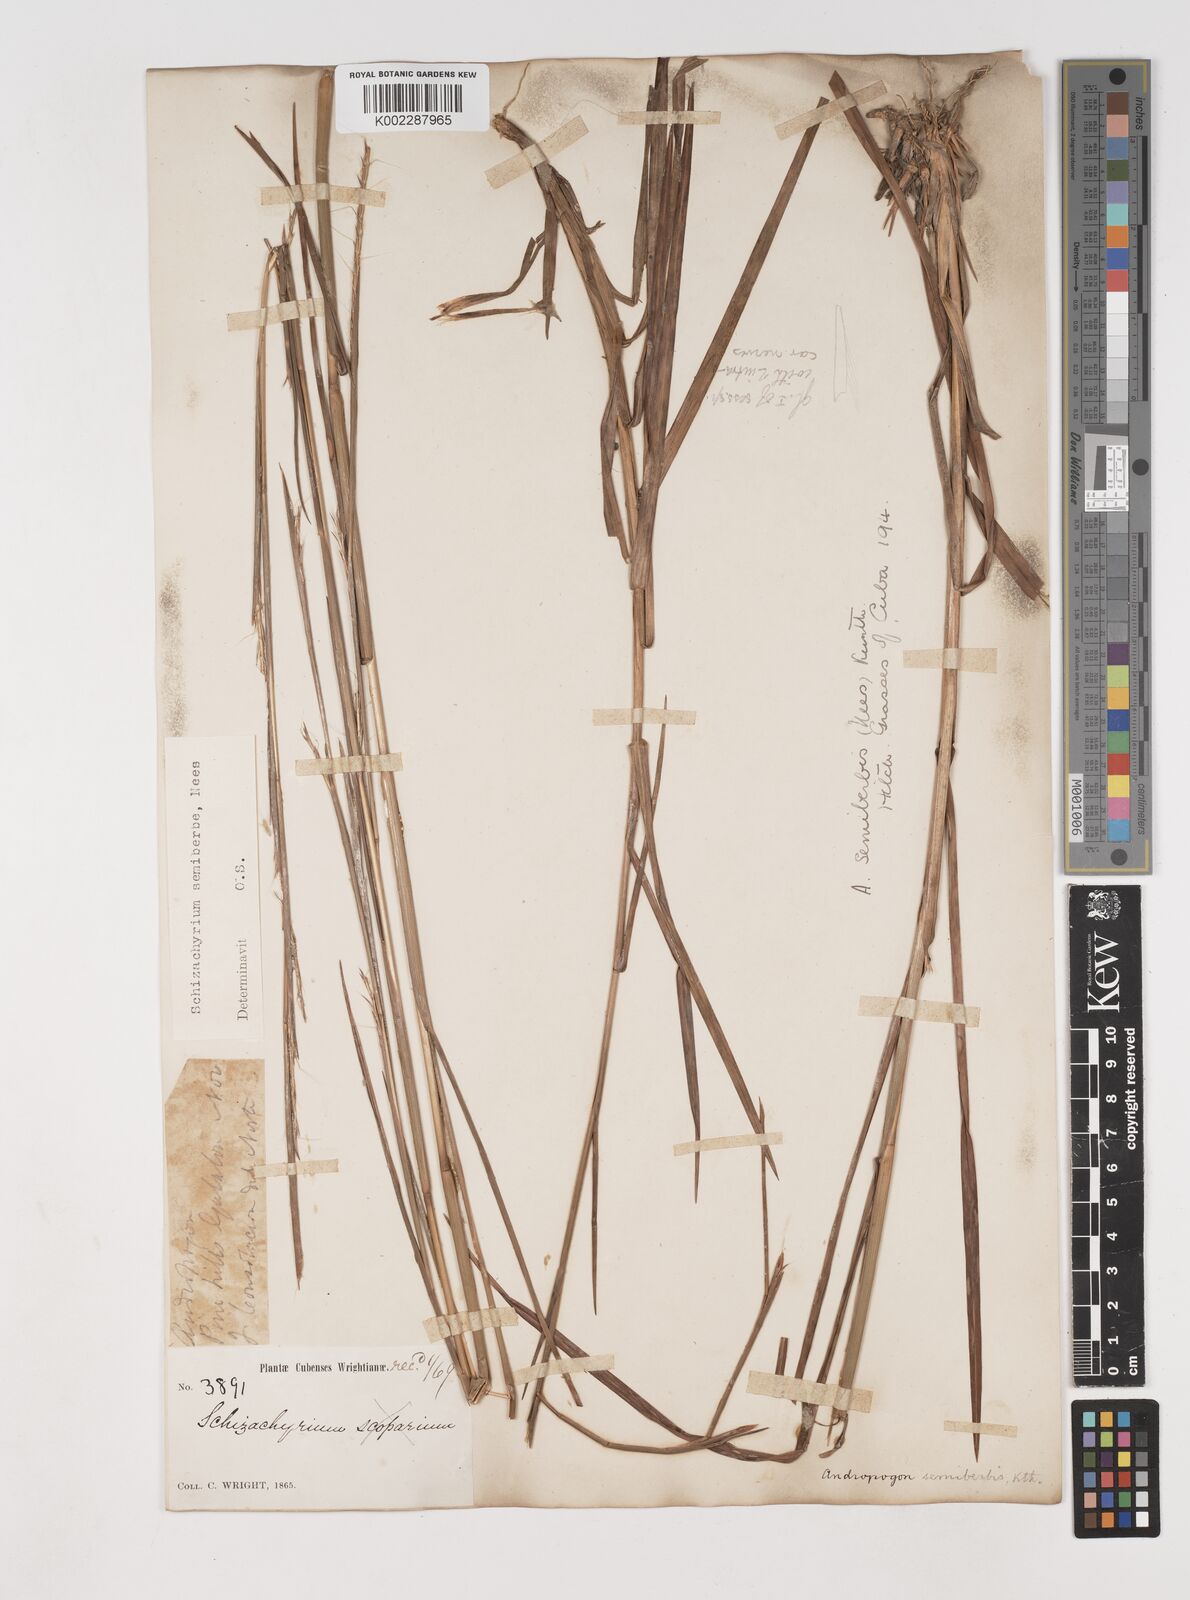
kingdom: Plantae
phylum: Tracheophyta
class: Liliopsida
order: Poales
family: Poaceae
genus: Schizachyrium
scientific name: Schizachyrium sanguineum
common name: Crimson bluestem
